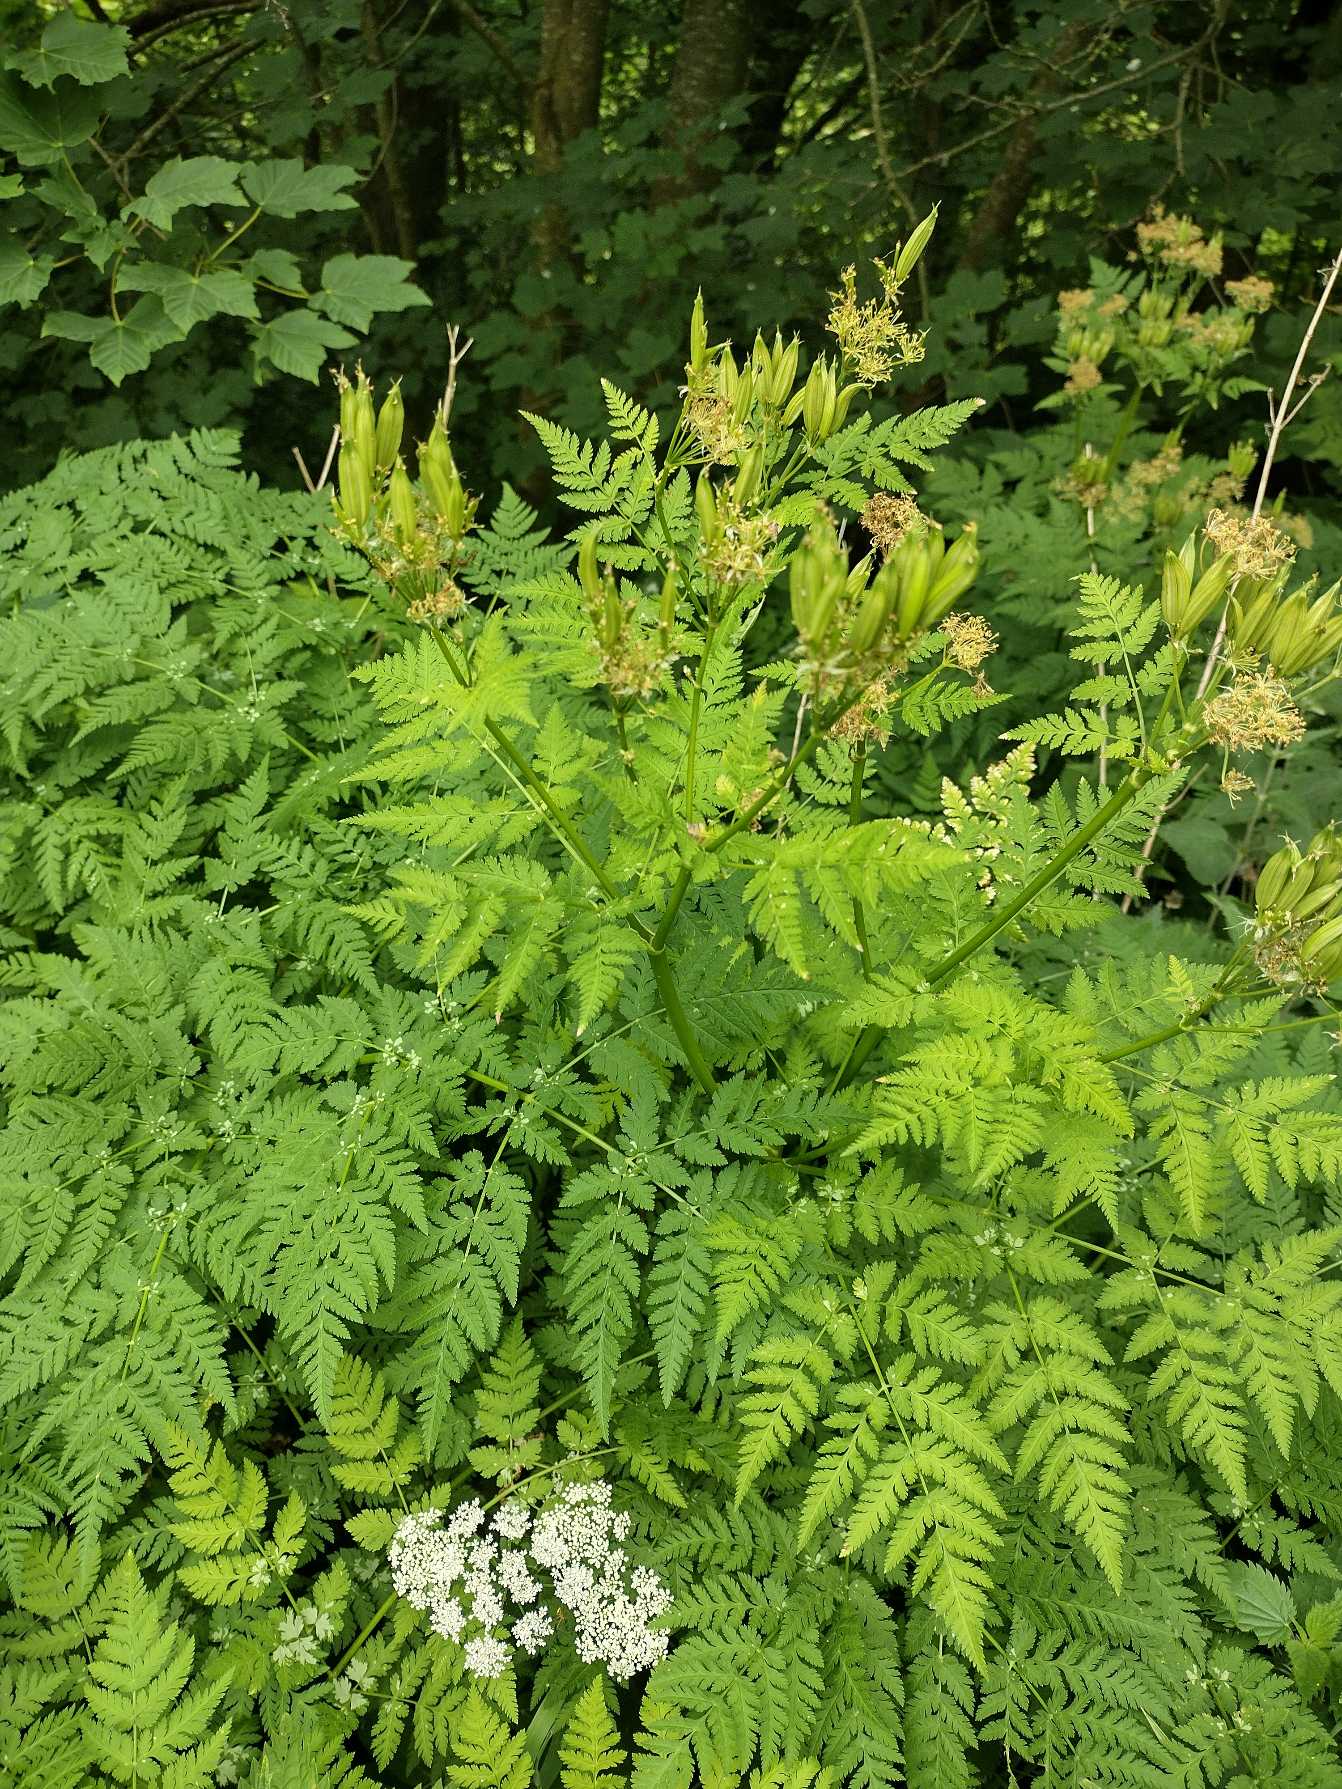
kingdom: Plantae
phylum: Tracheophyta
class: Magnoliopsida
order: Apiales
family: Apiaceae
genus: Myrrhis
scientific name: Myrrhis odorata
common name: Sødskærm
